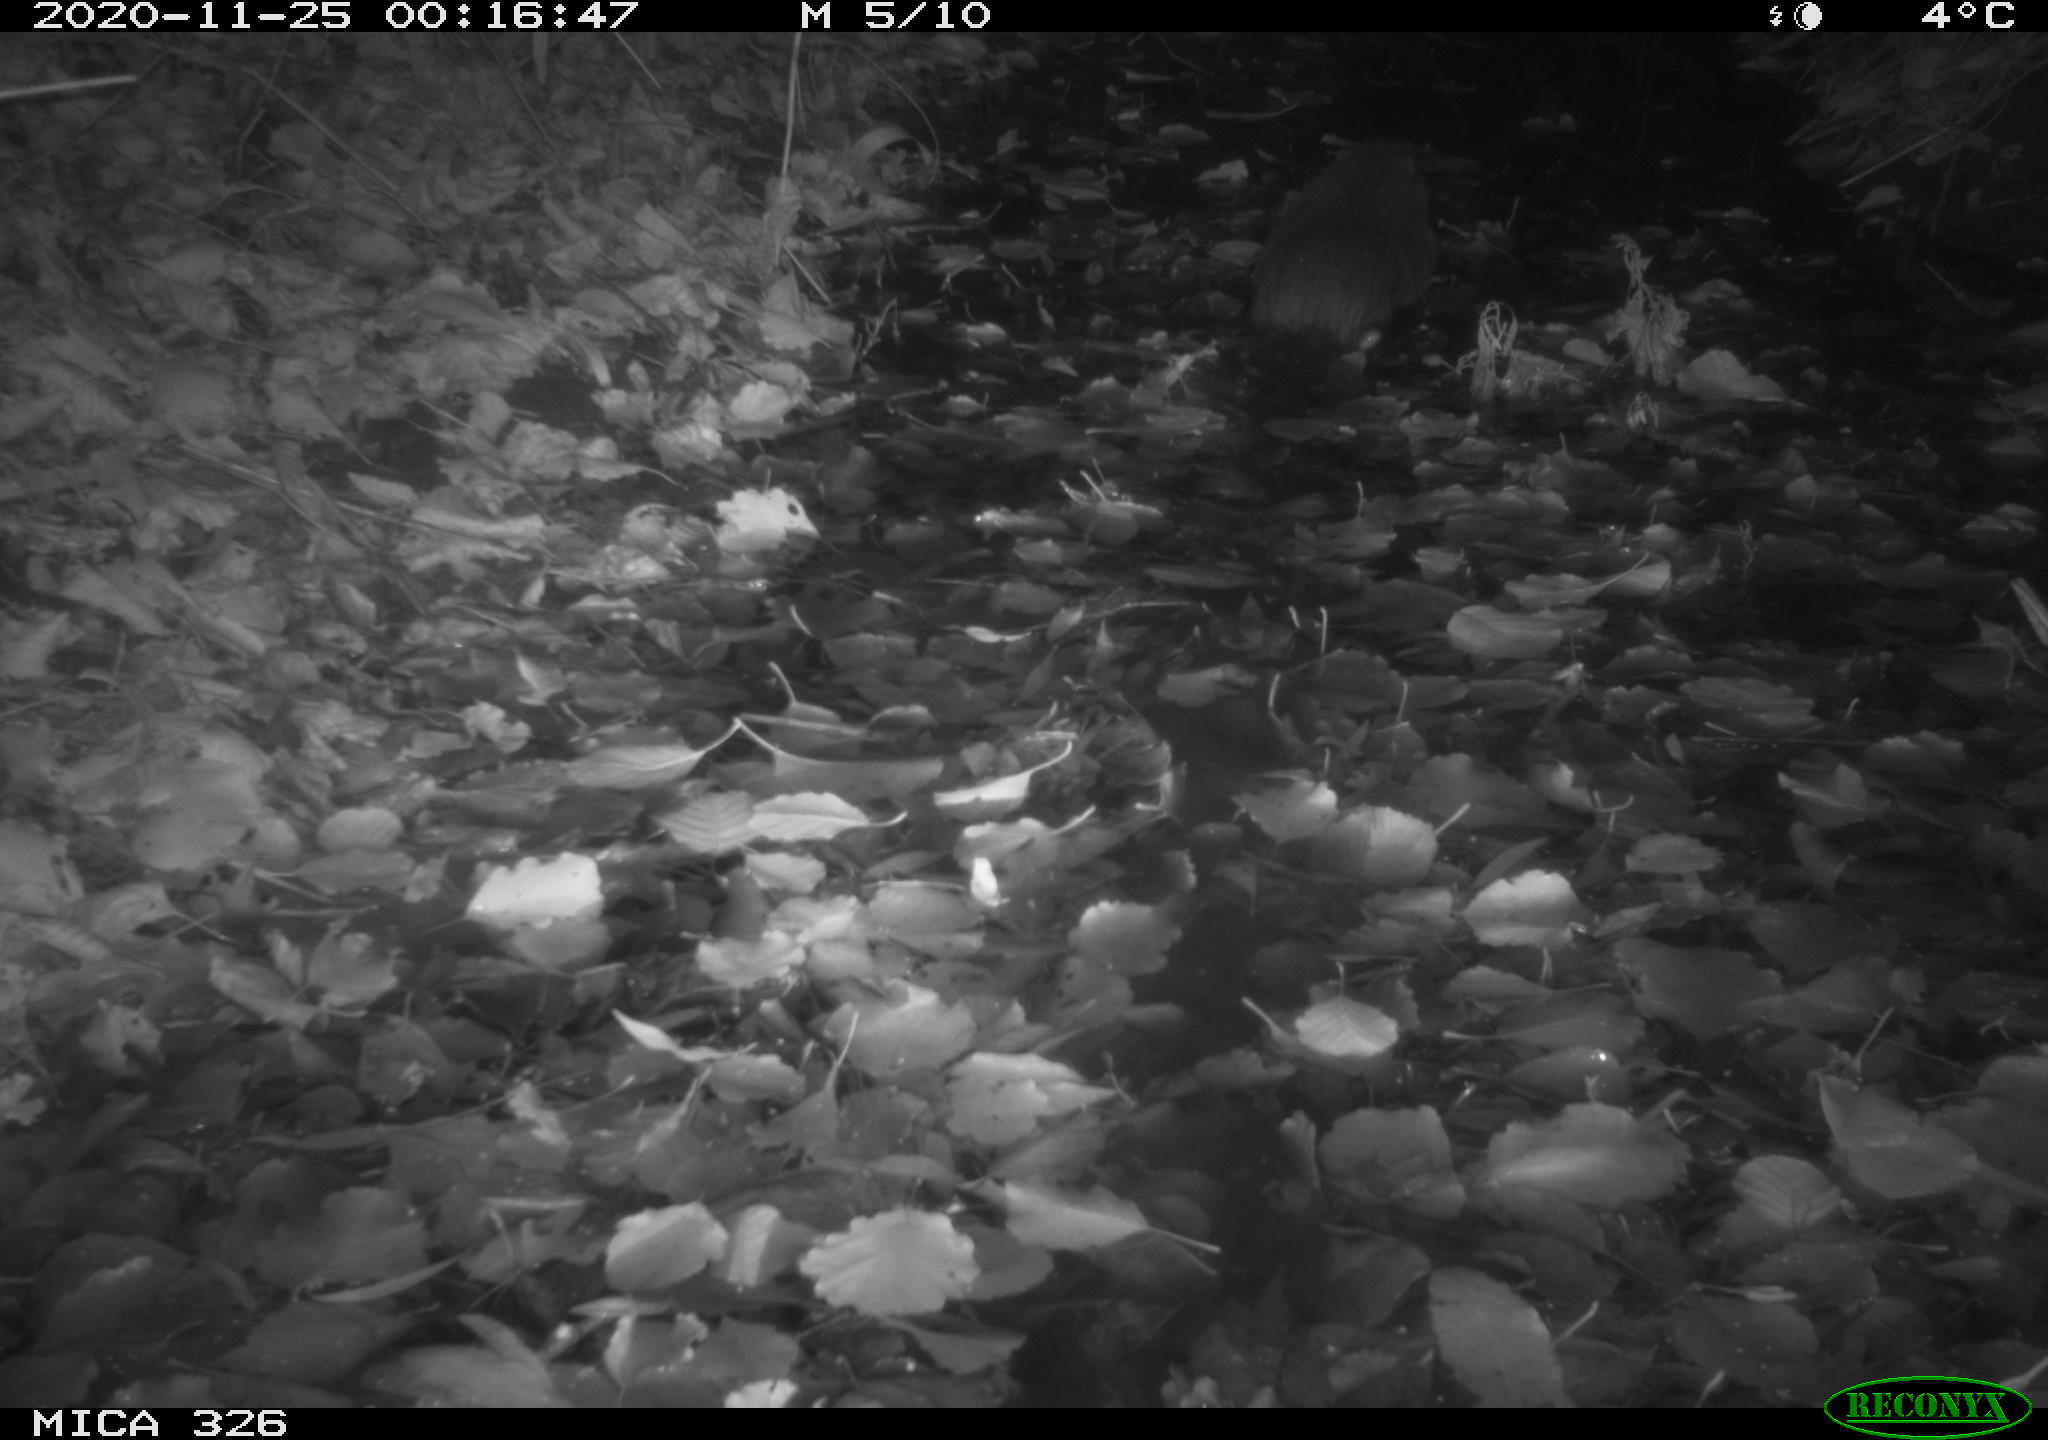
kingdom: Animalia
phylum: Chordata
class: Mammalia
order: Rodentia
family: Myocastoridae
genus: Myocastor
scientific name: Myocastor coypus
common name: Coypu
